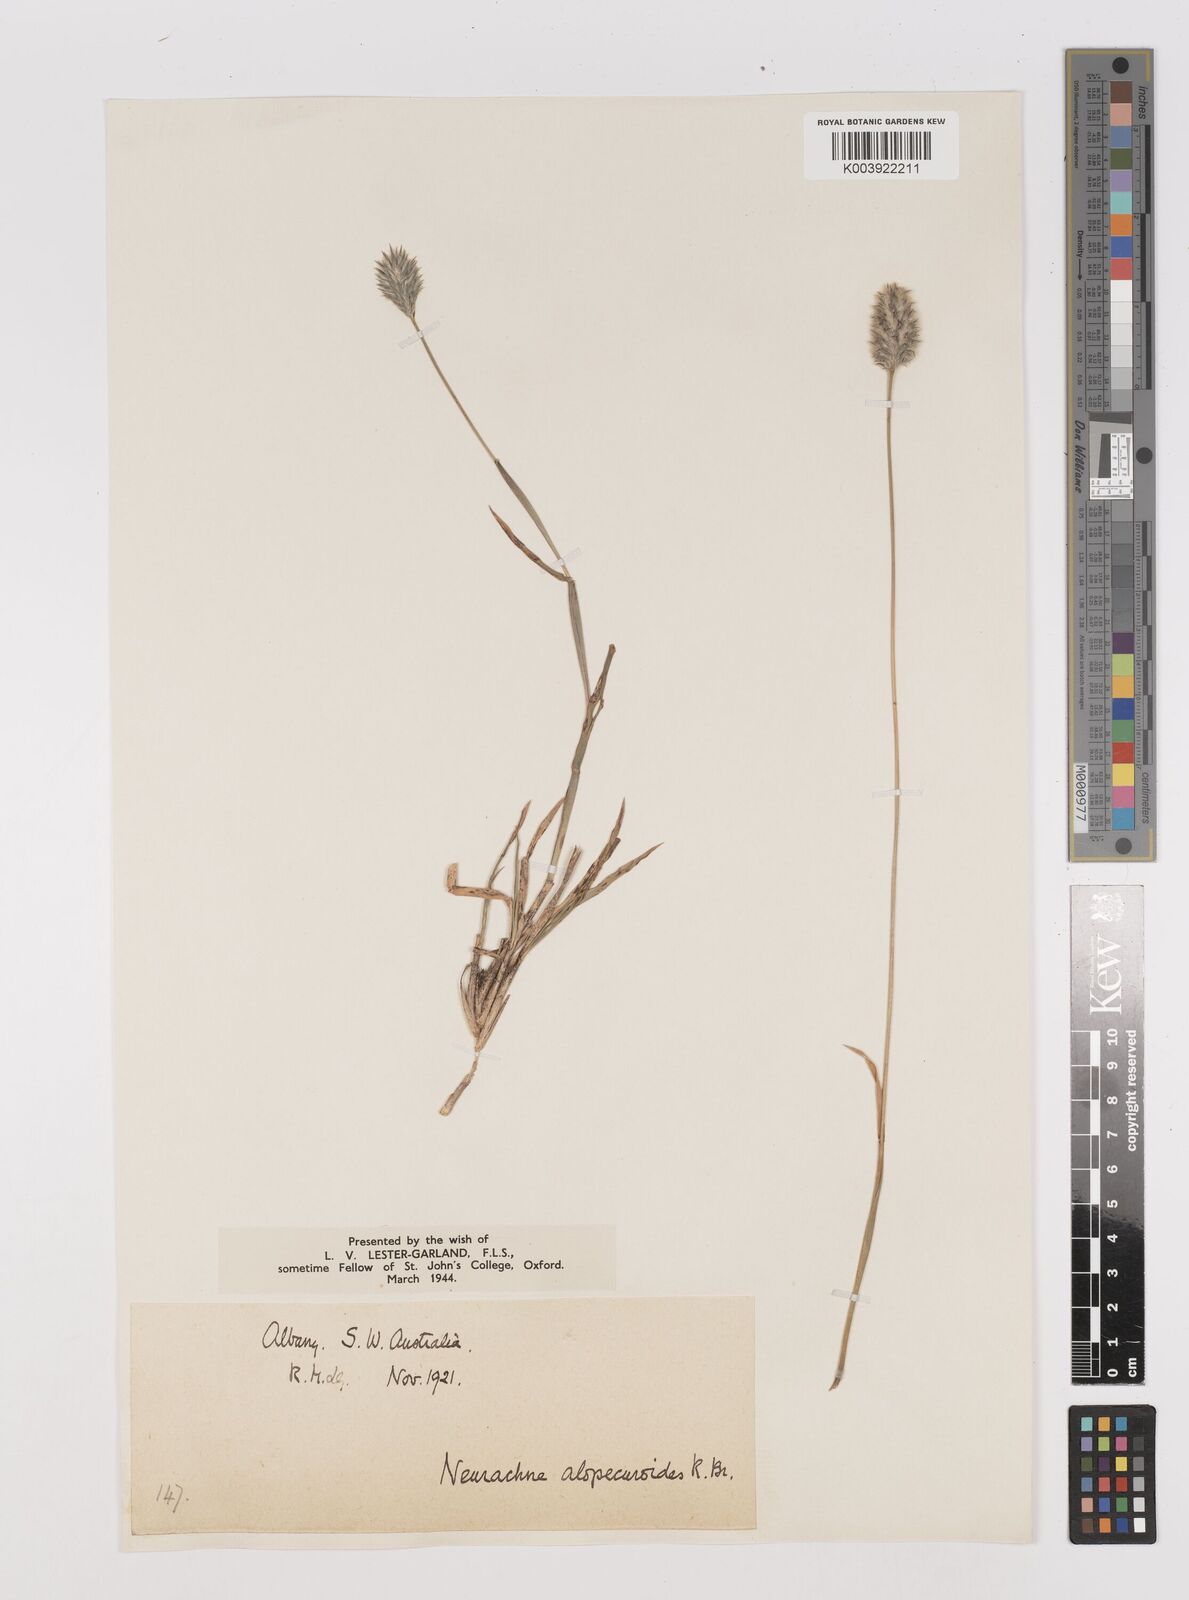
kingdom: Plantae
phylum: Tracheophyta
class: Liliopsida
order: Poales
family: Poaceae
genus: Neurachne
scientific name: Neurachne alopecuroidea
